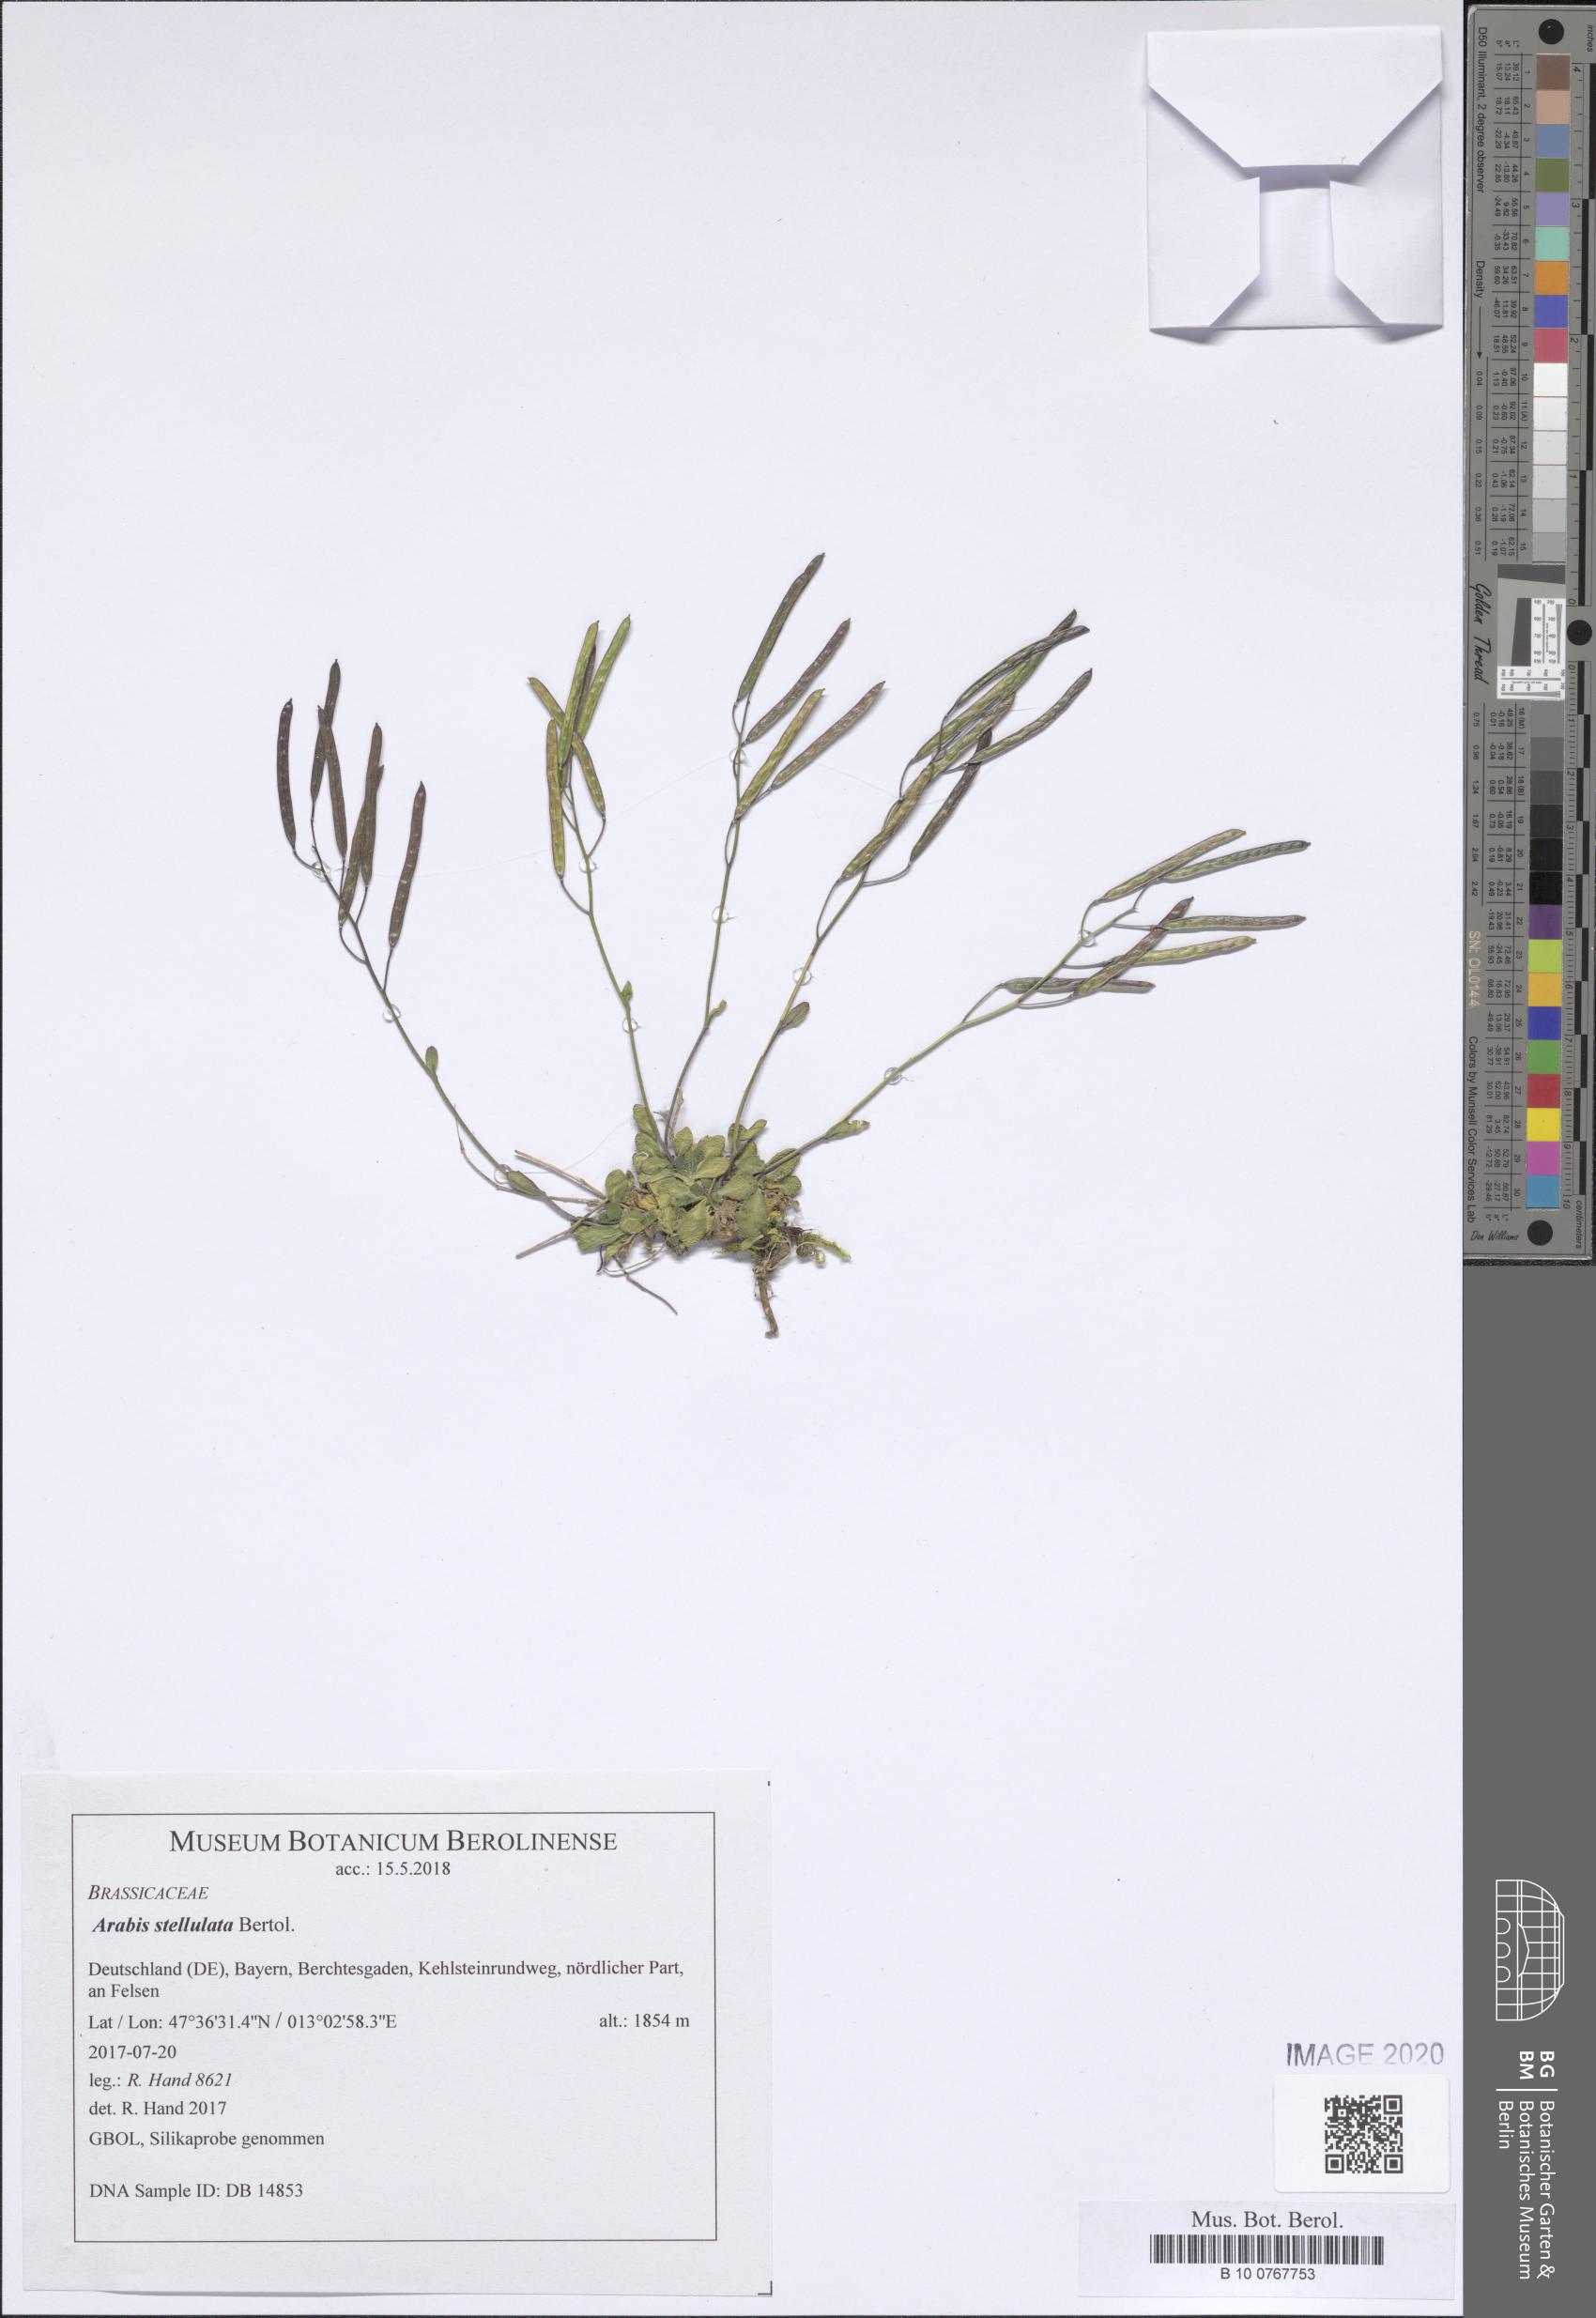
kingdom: Plantae
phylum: Tracheophyta
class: Magnoliopsida
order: Brassicales
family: Brassicaceae
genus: Arabis
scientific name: Arabis stellulata
